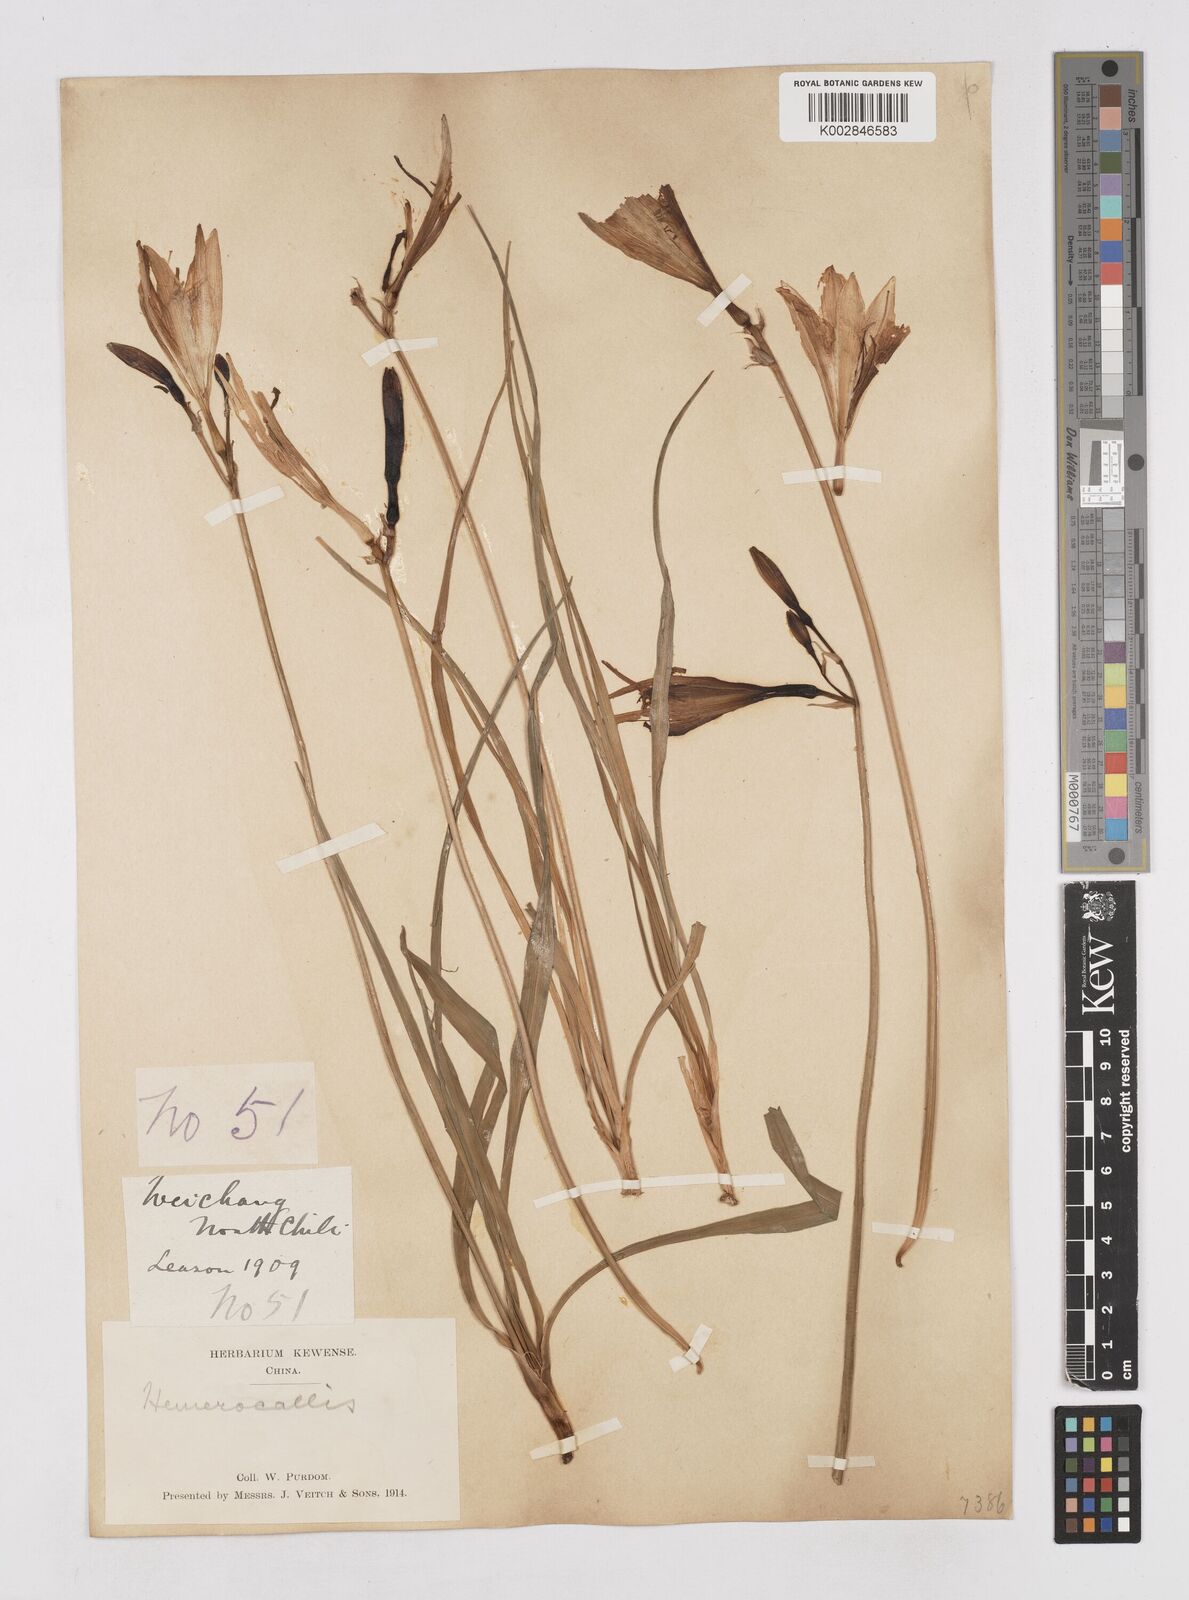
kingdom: Plantae
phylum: Tracheophyta
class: Liliopsida
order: Asparagales
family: Asphodelaceae
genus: Hemerocallis
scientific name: Hemerocallis minor
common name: Small daylily
